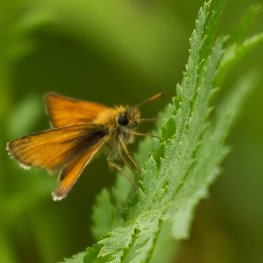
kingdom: Animalia
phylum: Arthropoda
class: Insecta
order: Lepidoptera
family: Hesperiidae
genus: Thymelicus
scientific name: Thymelicus lineola
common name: European Skipper
